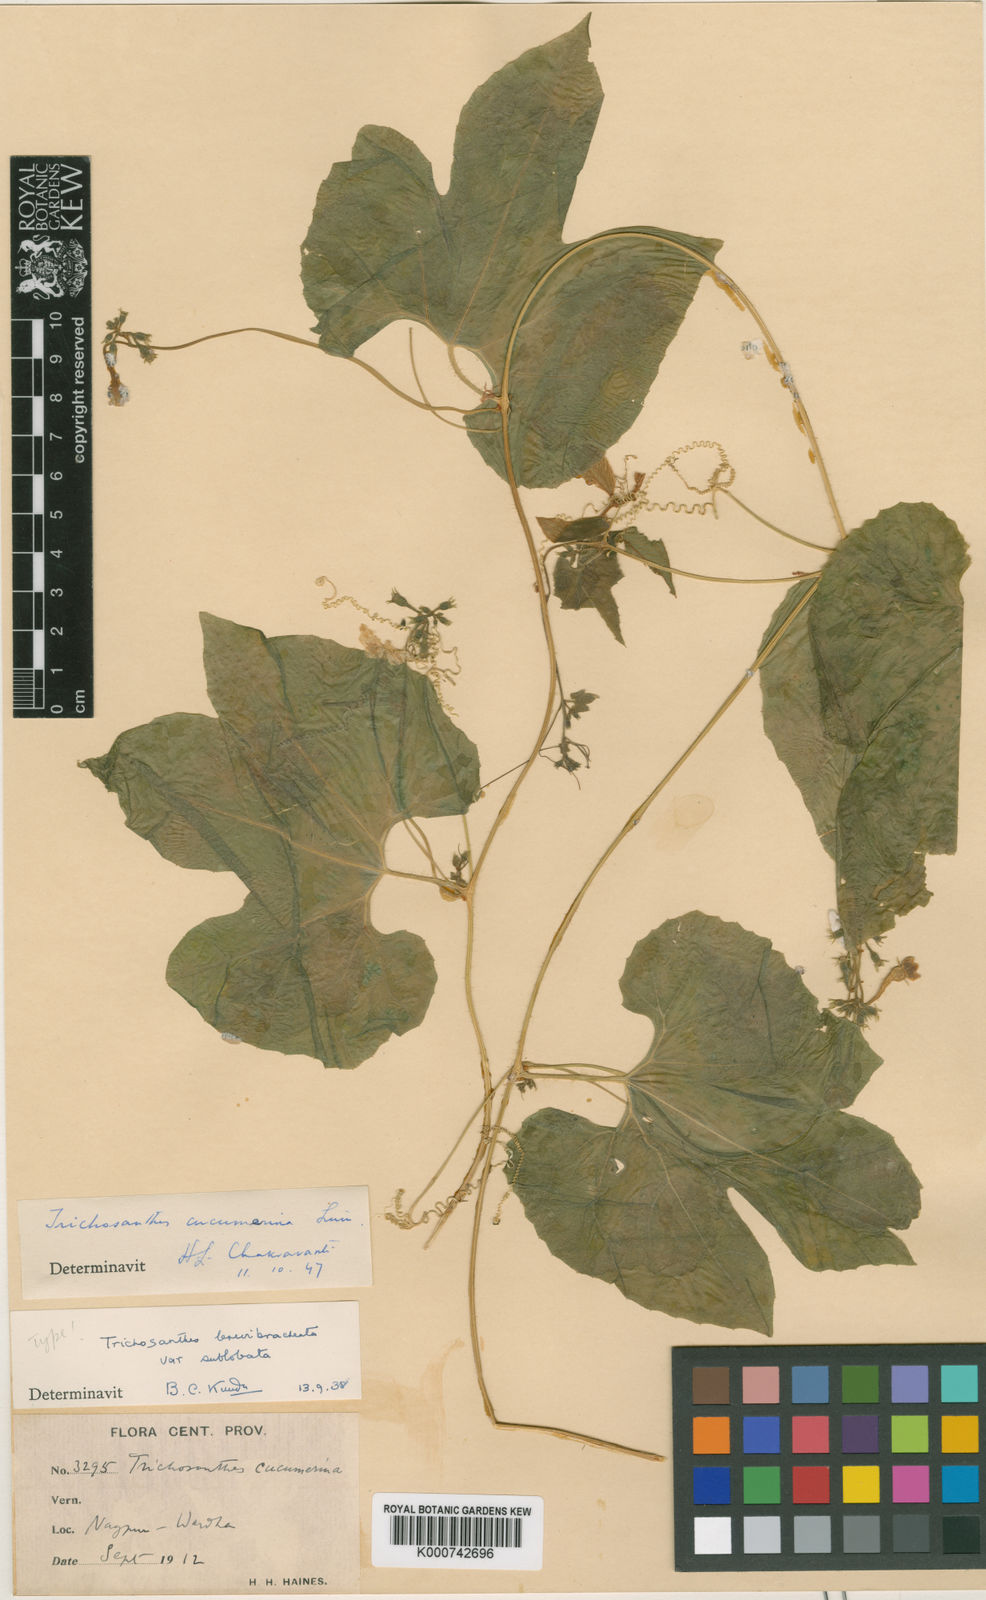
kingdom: Plantae
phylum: Tracheophyta
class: Magnoliopsida
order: Cucurbitales
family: Cucurbitaceae
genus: Trichosanthes
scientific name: Trichosanthes cucumerina
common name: Snakegourd
